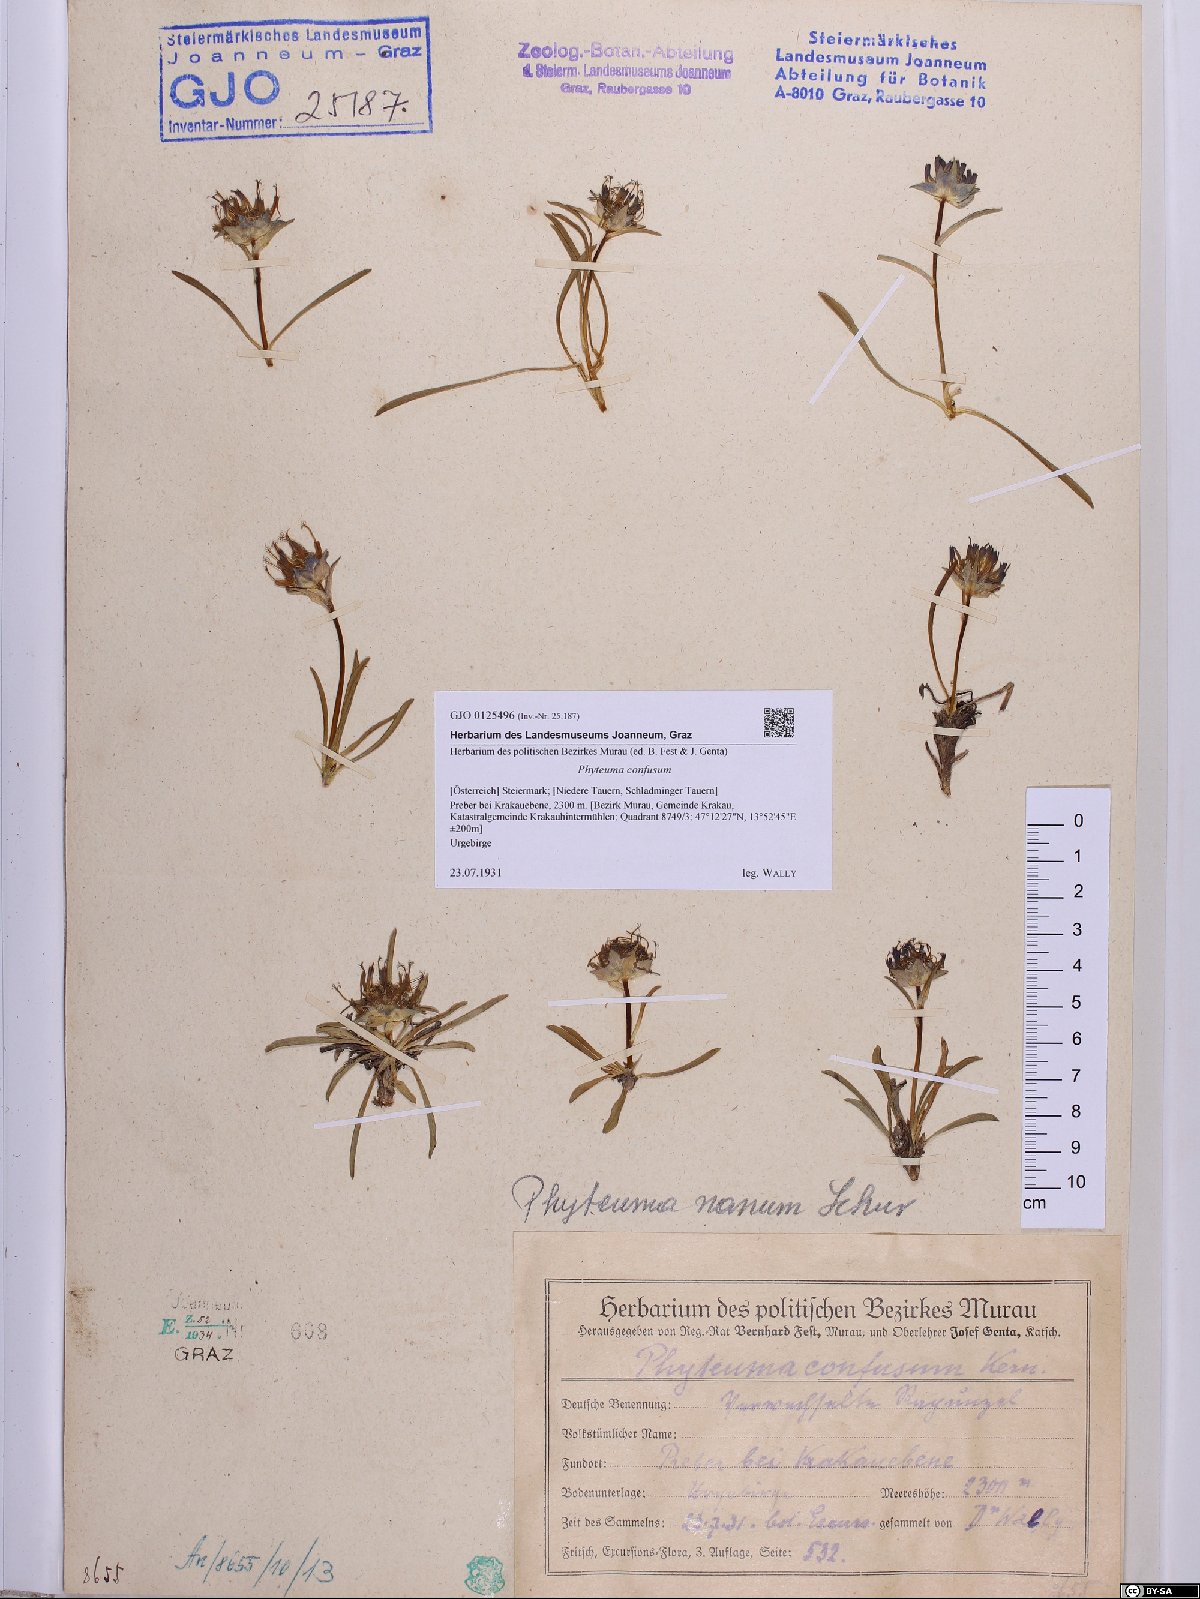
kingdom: Plantae
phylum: Tracheophyta
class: Magnoliopsida
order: Asterales
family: Campanulaceae
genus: Phyteuma
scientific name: Phyteuma confusum
